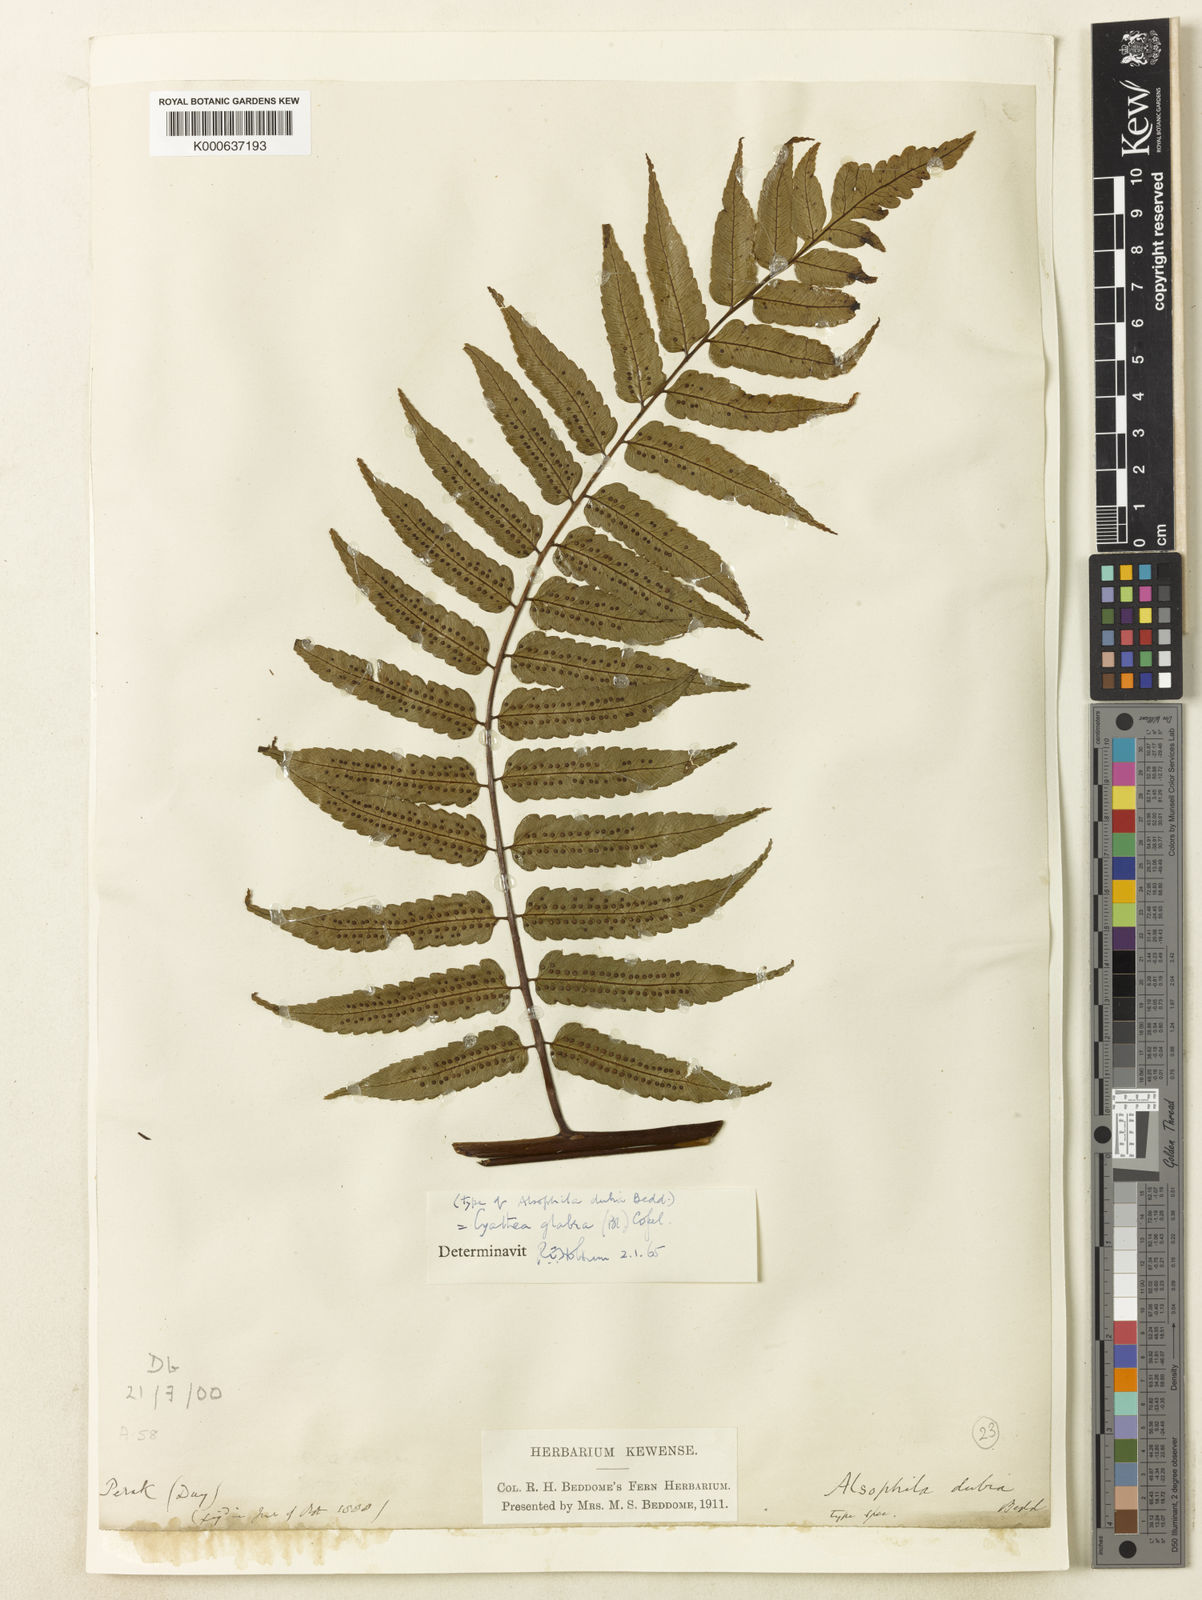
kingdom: Plantae
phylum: Tracheophyta
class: Polypodiopsida
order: Cyatheales
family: Cyatheaceae
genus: Gymnosphaera
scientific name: Gymnosphaera glabra
